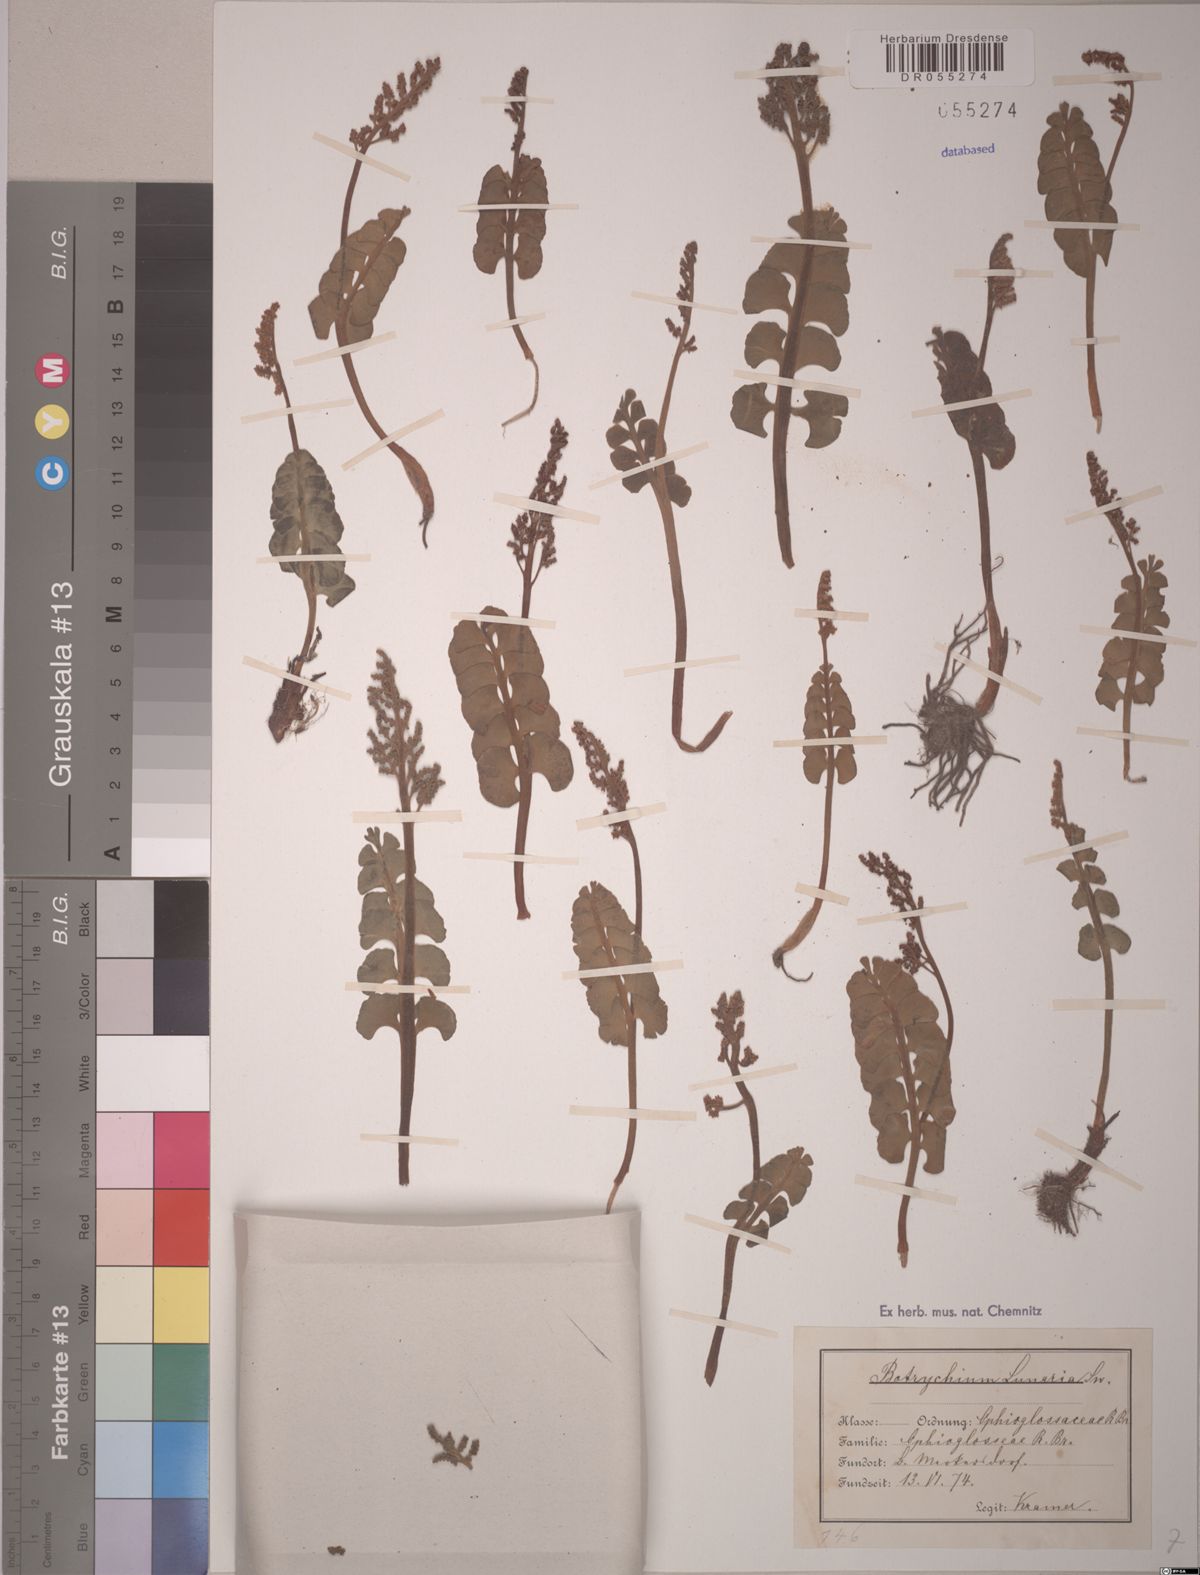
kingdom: Plantae
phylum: Tracheophyta
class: Polypodiopsida
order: Ophioglossales
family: Ophioglossaceae
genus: Botrychium
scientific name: Botrychium lunaria
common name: Moonwort
